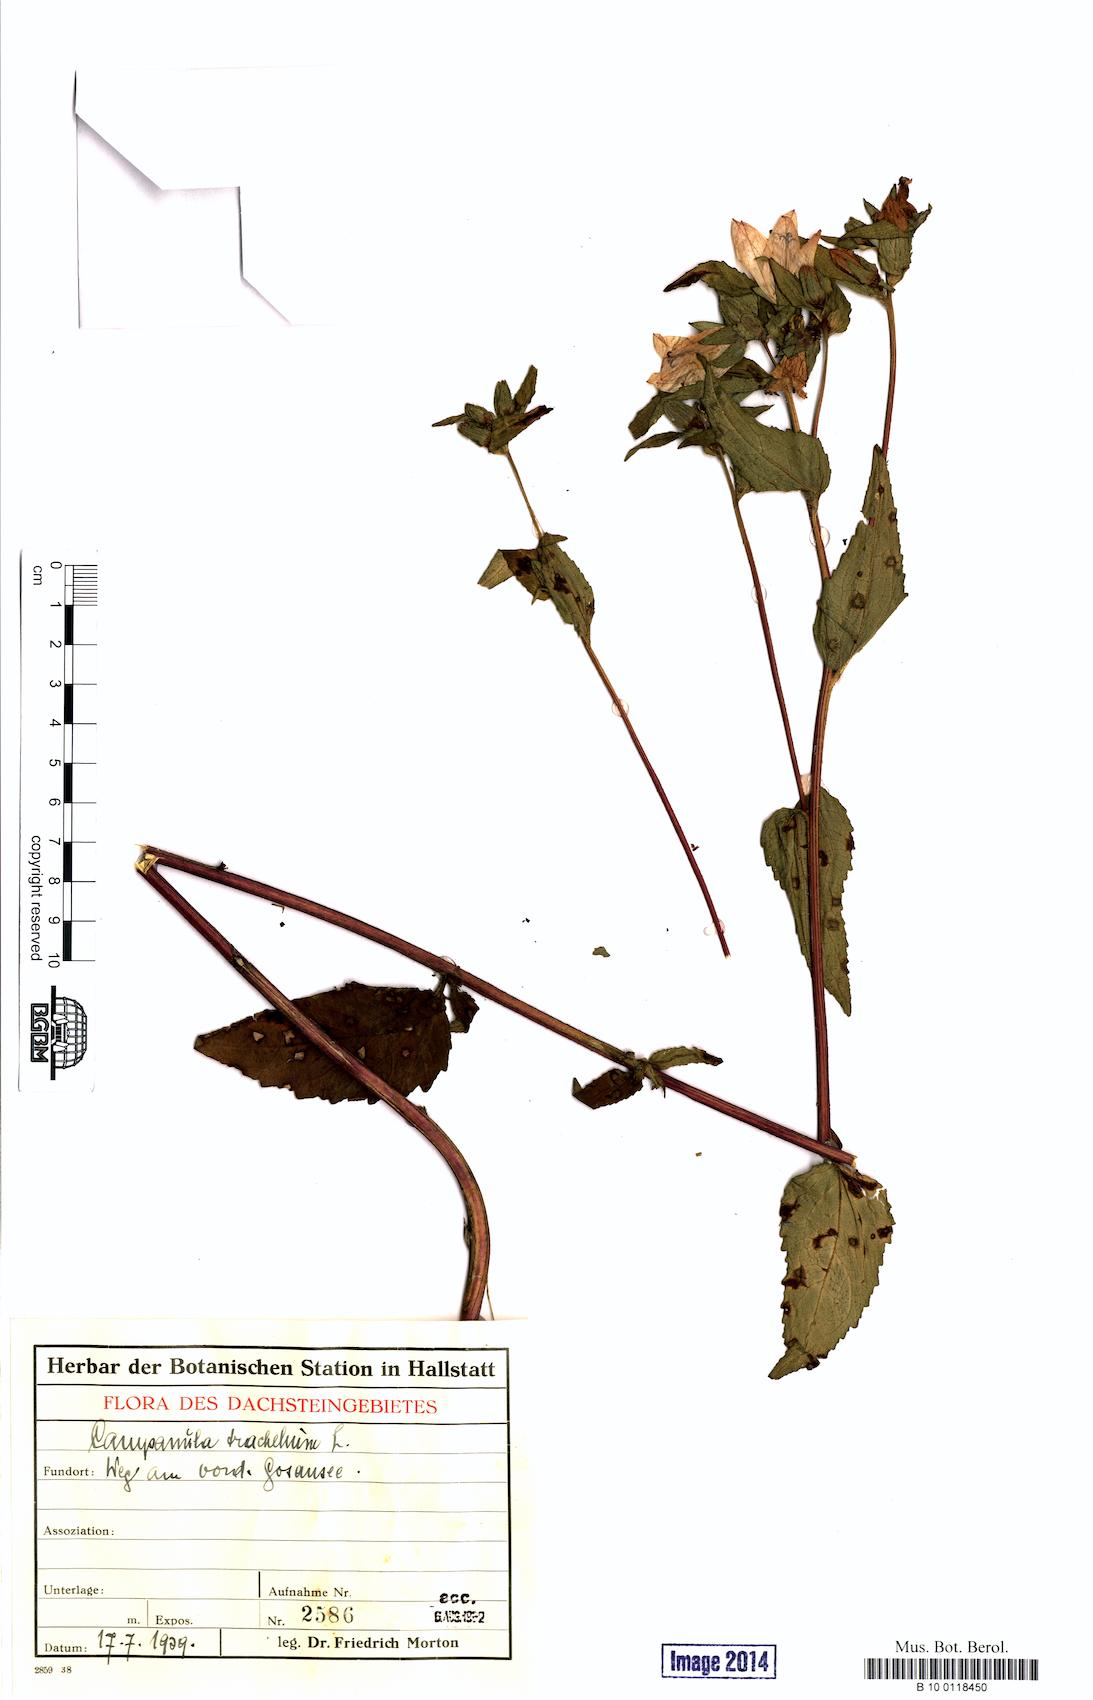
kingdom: Plantae
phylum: Tracheophyta
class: Magnoliopsida
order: Asterales
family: Campanulaceae
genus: Campanula
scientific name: Campanula trachelium
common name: Nettle-leaved bellflower
